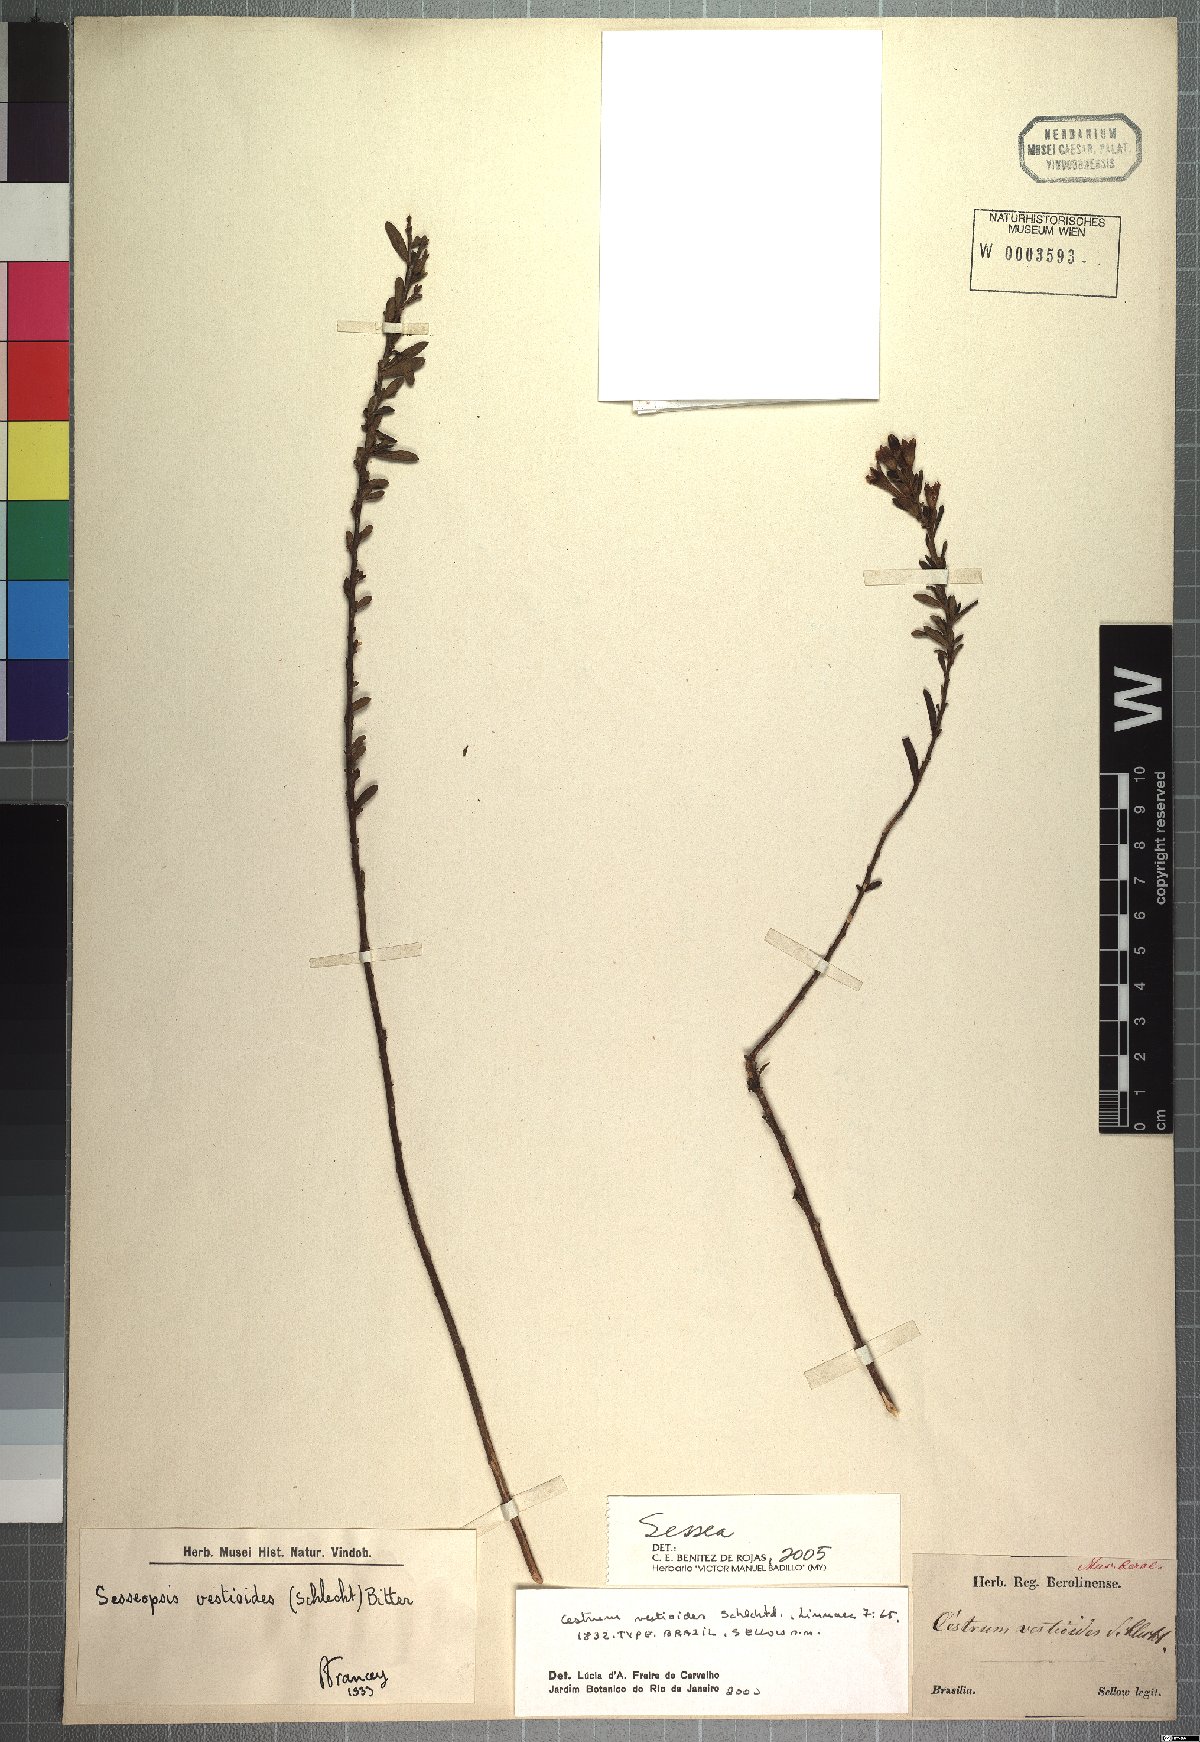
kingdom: Plantae
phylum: Tracheophyta
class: Magnoliopsida
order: Solanales
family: Solanaceae
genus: Sessea
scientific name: Sessea
